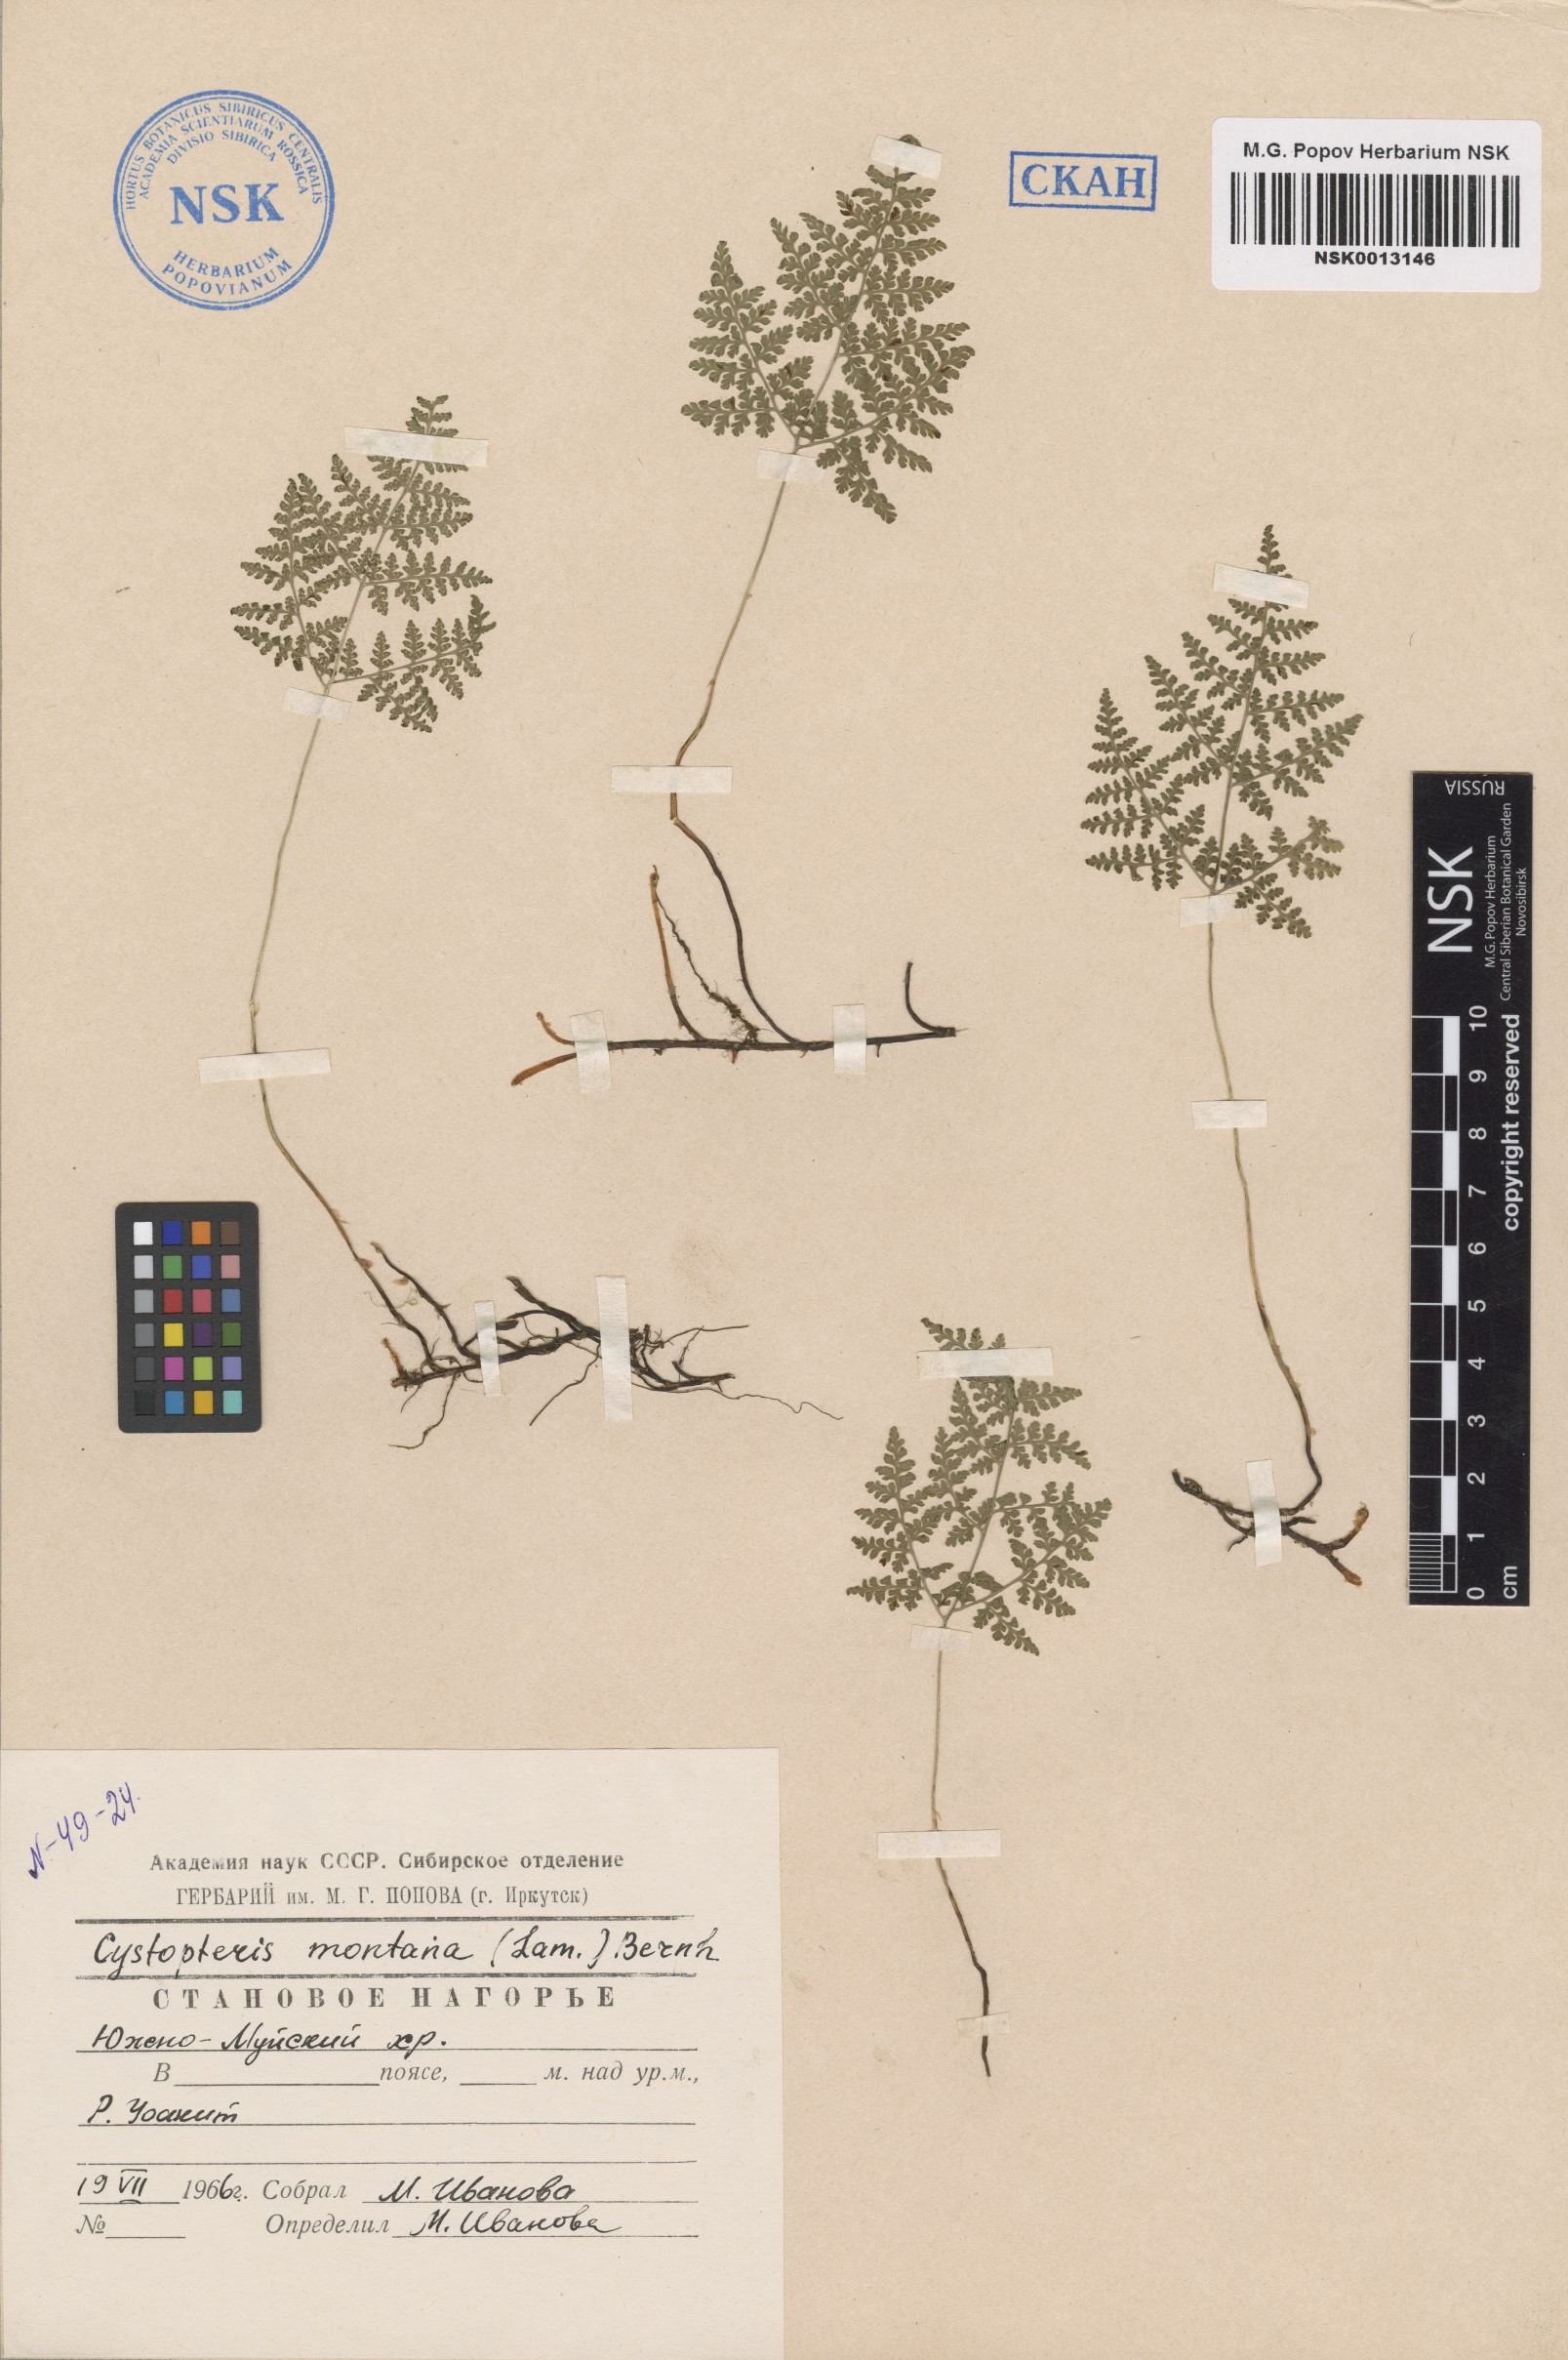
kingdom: Plantae
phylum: Tracheophyta
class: Polypodiopsida
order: Polypodiales
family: Cystopteridaceae
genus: Cystopteris
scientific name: Cystopteris montana
